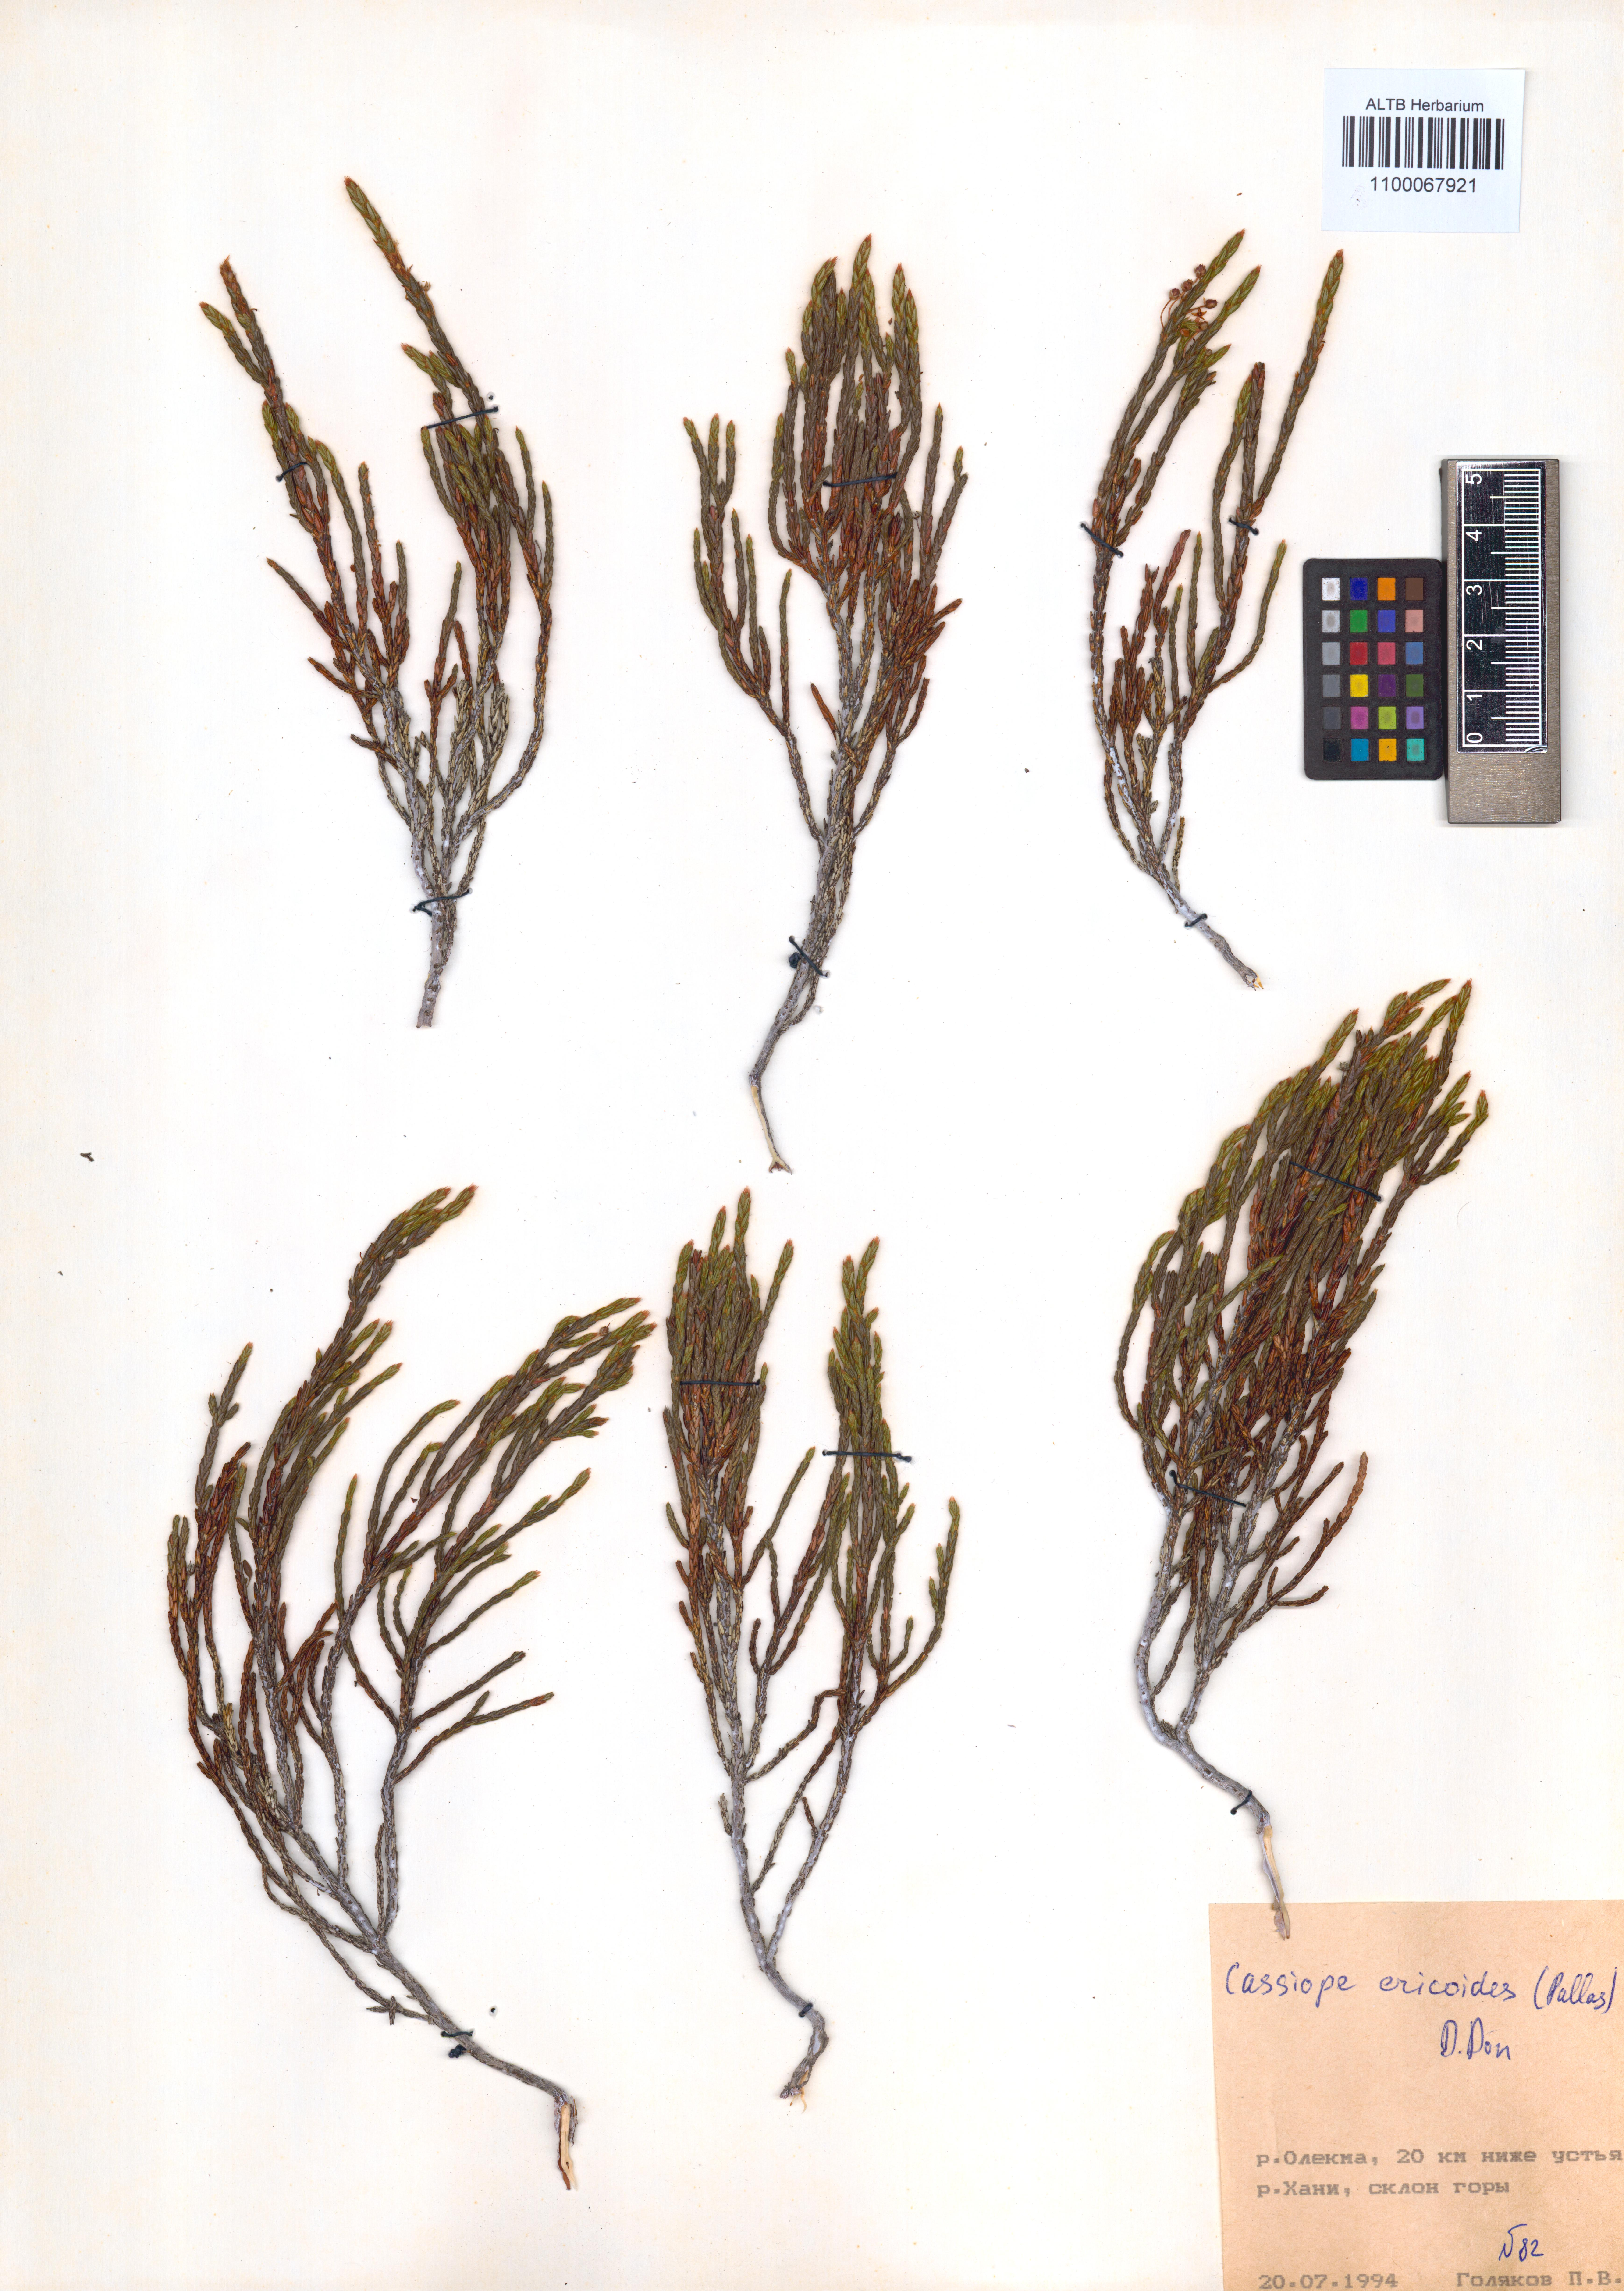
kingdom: Plantae
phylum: Tracheophyta
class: Magnoliopsida
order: Ericales
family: Ericaceae
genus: Cassiope
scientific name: Cassiope ericoides
